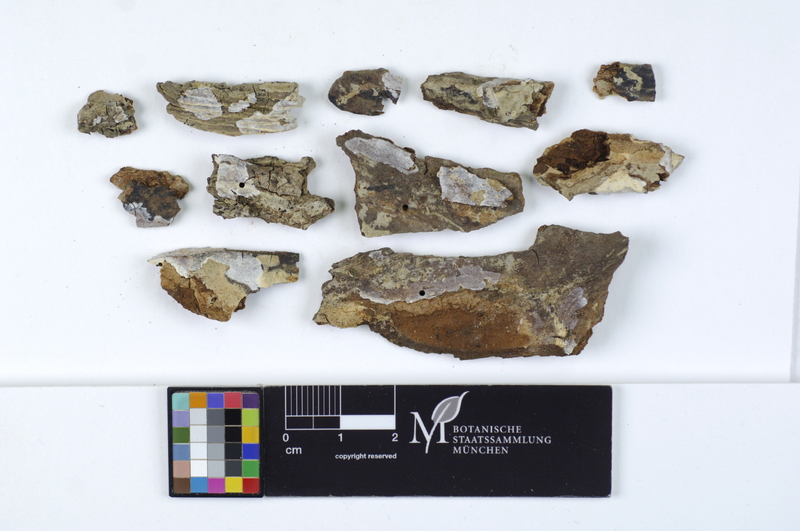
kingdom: Plantae
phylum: Tracheophyta
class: Magnoliopsida
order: Sapindales
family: Sapindaceae
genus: Acer
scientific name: Acer campestre
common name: Field maple
